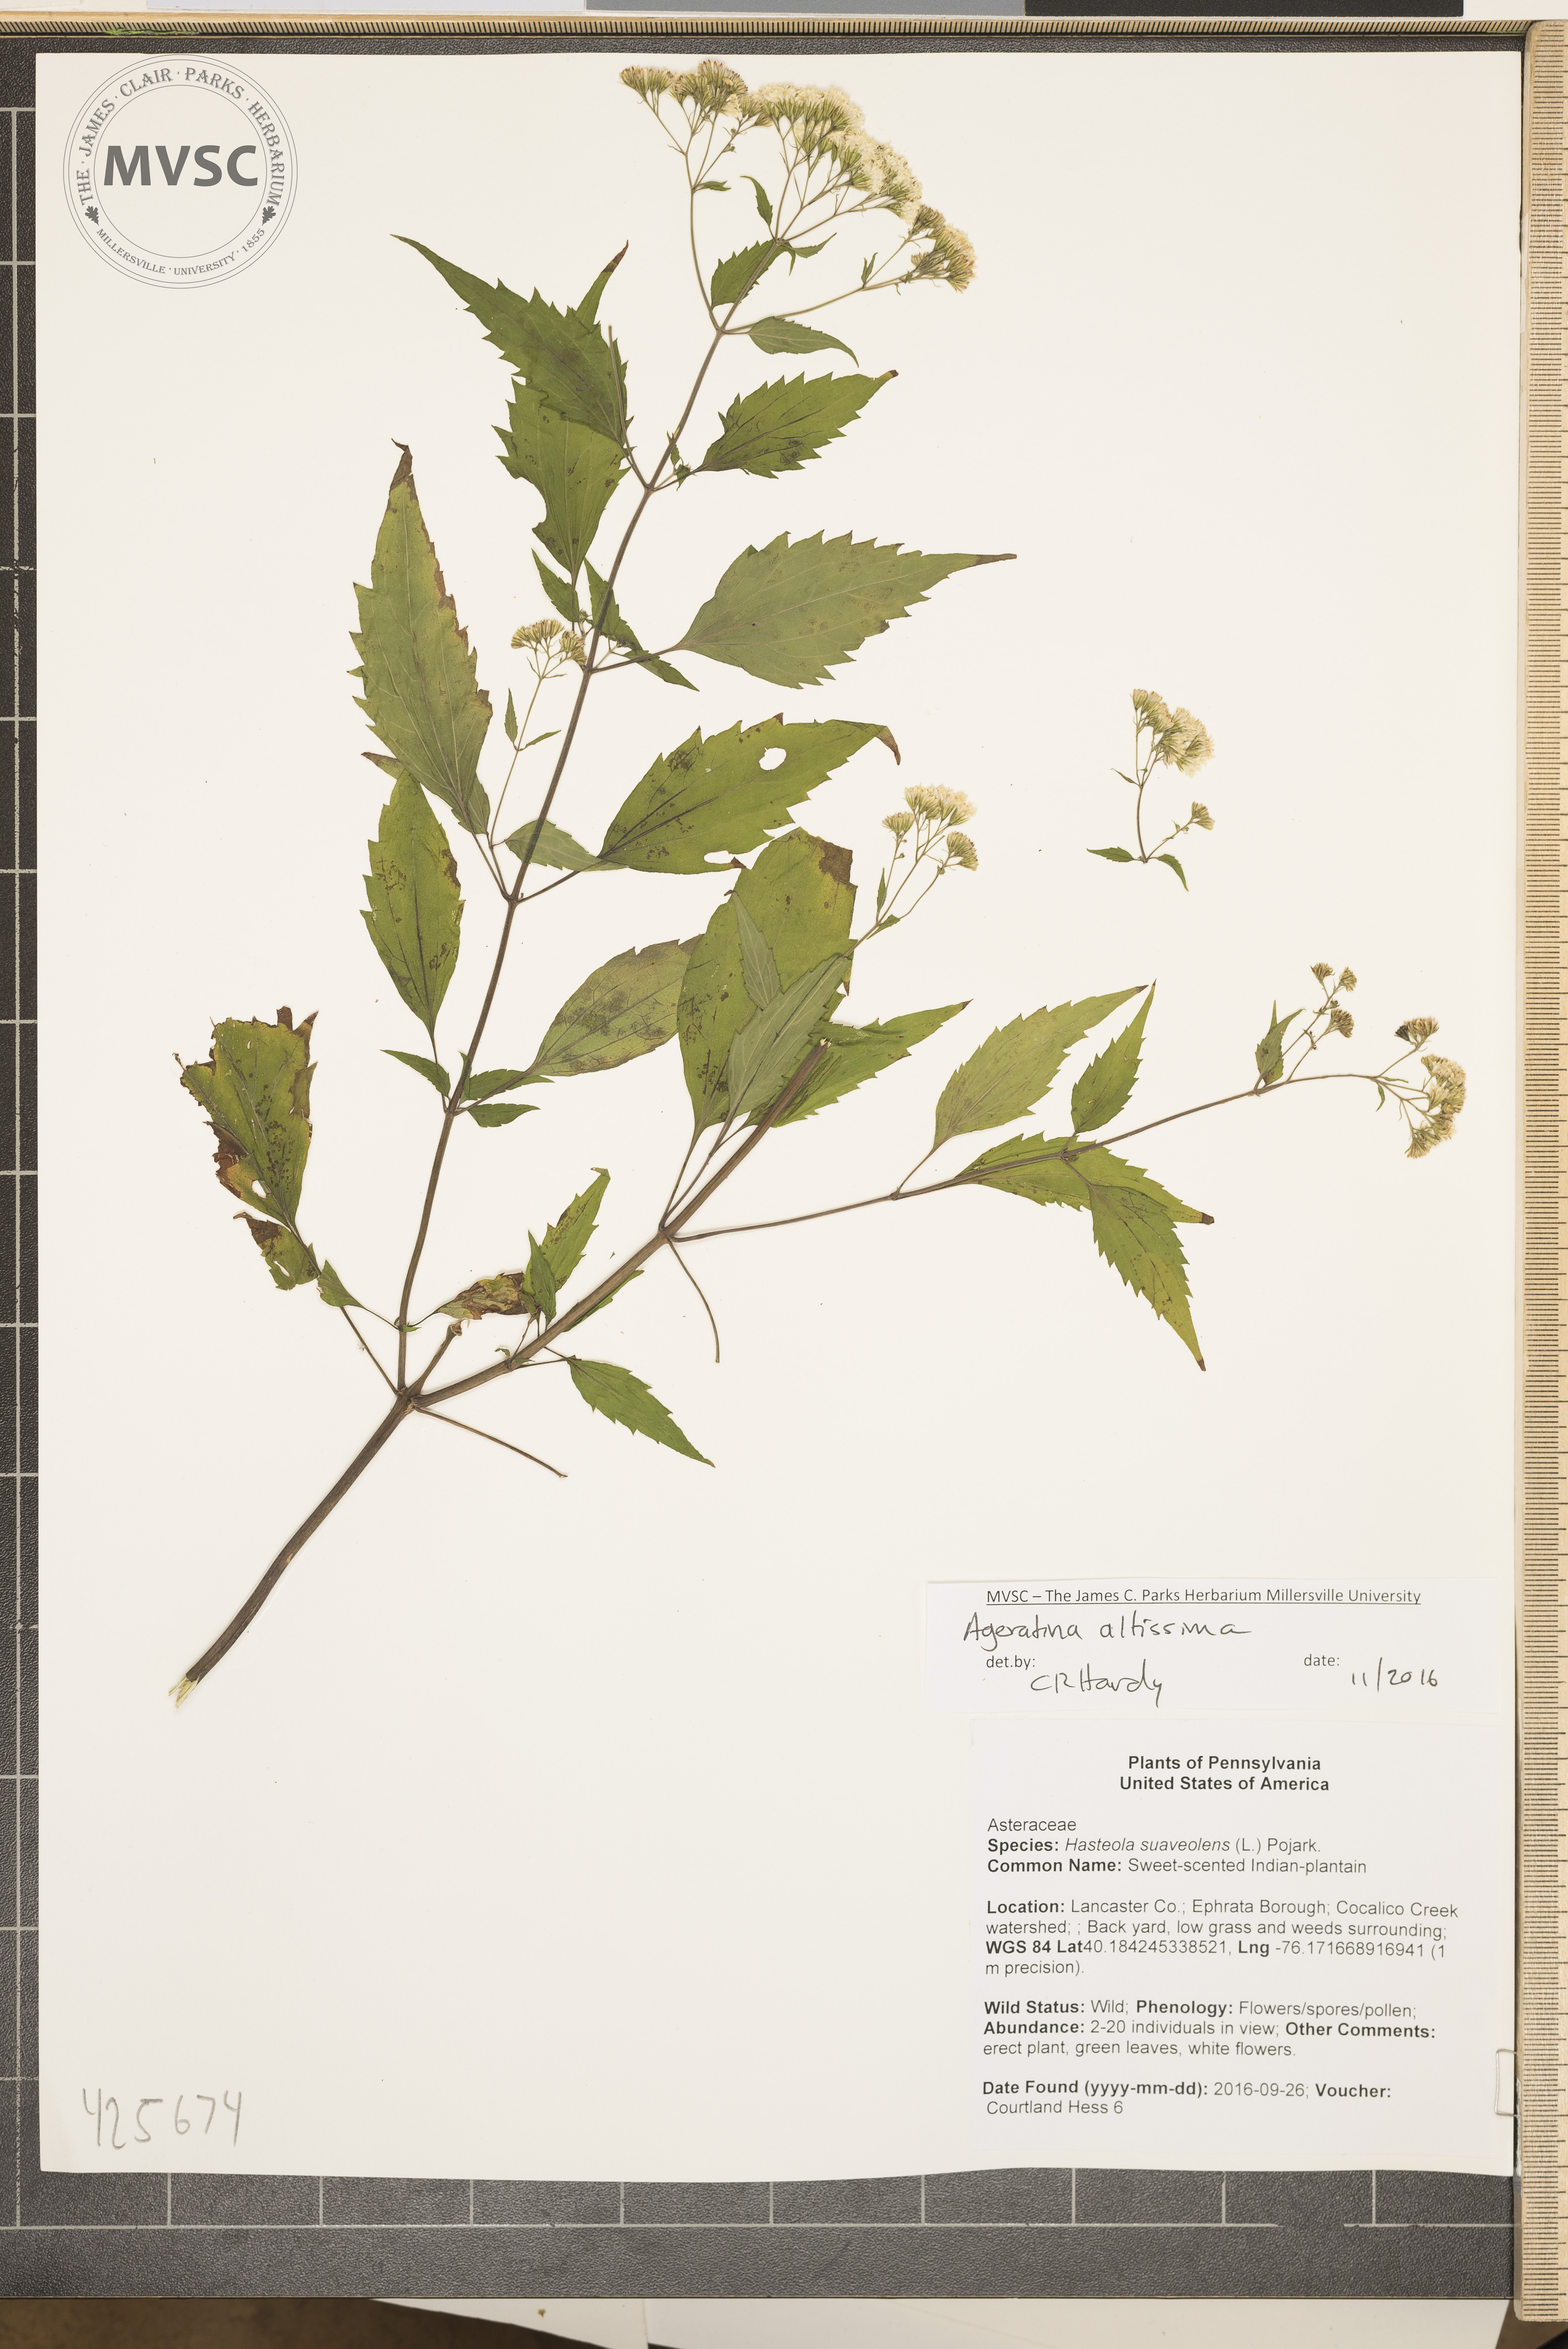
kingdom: Plantae
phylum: Tracheophyta
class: Magnoliopsida
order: Asterales
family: Asteraceae
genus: Ageratina
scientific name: Ageratina altissima
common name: White snakeroot
